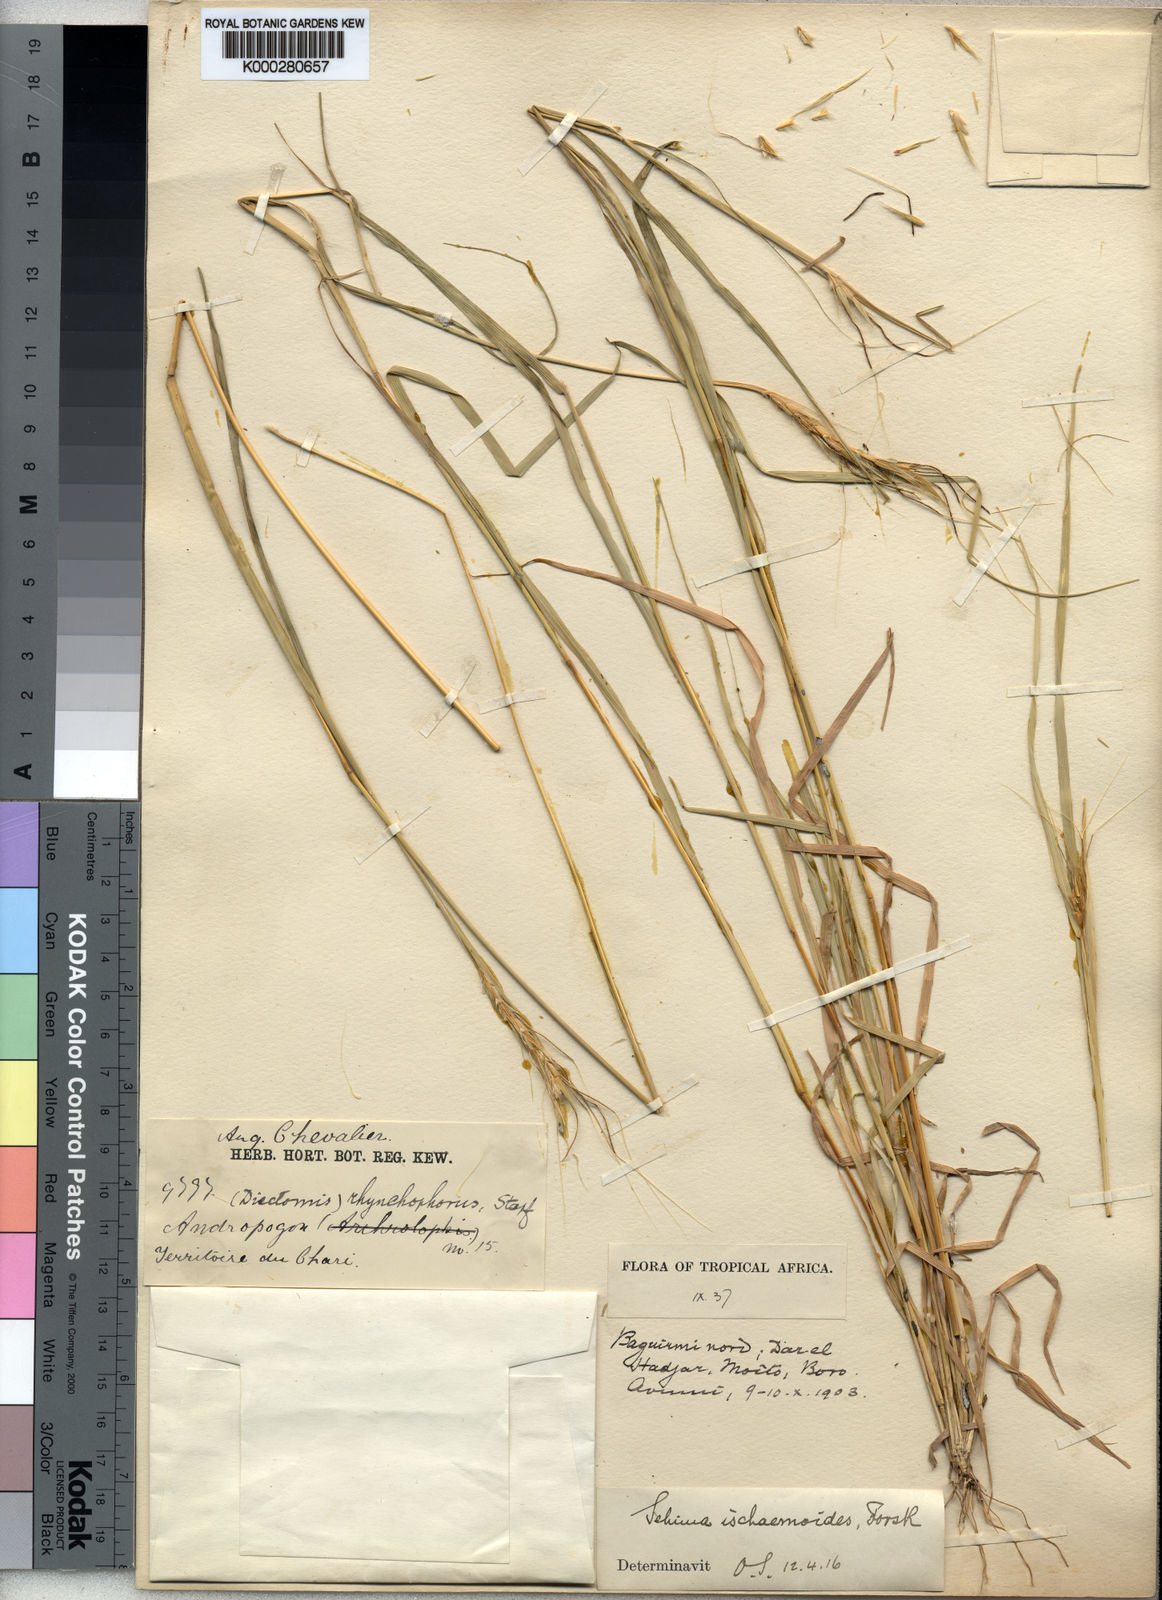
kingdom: Plantae
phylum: Tracheophyta
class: Liliopsida
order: Poales
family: Poaceae
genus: Sehima
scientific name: Sehima ischaemoides
